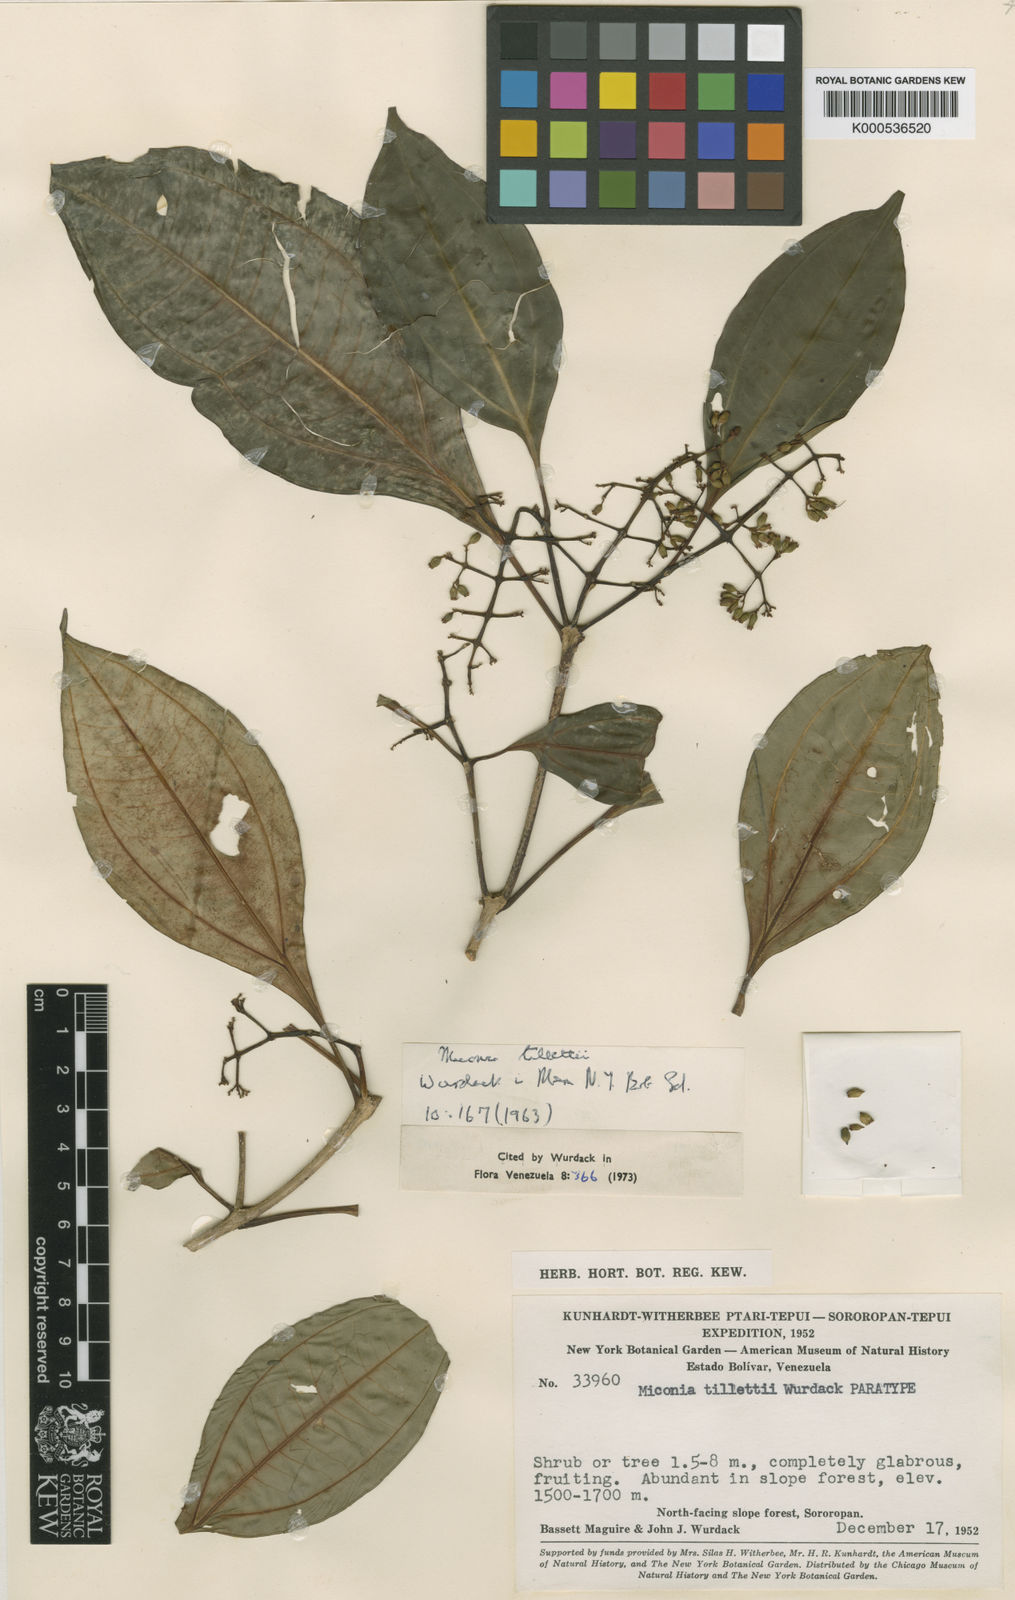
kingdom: Plantae
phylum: Tracheophyta
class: Magnoliopsida
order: Myrtales
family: Melastomataceae
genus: Miconia
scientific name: Miconia tillettii
